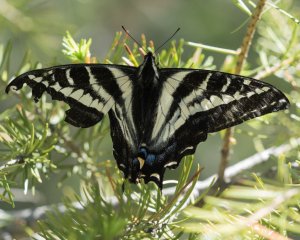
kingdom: Animalia
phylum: Arthropoda
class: Insecta
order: Lepidoptera
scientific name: Lepidoptera
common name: Butterflies
